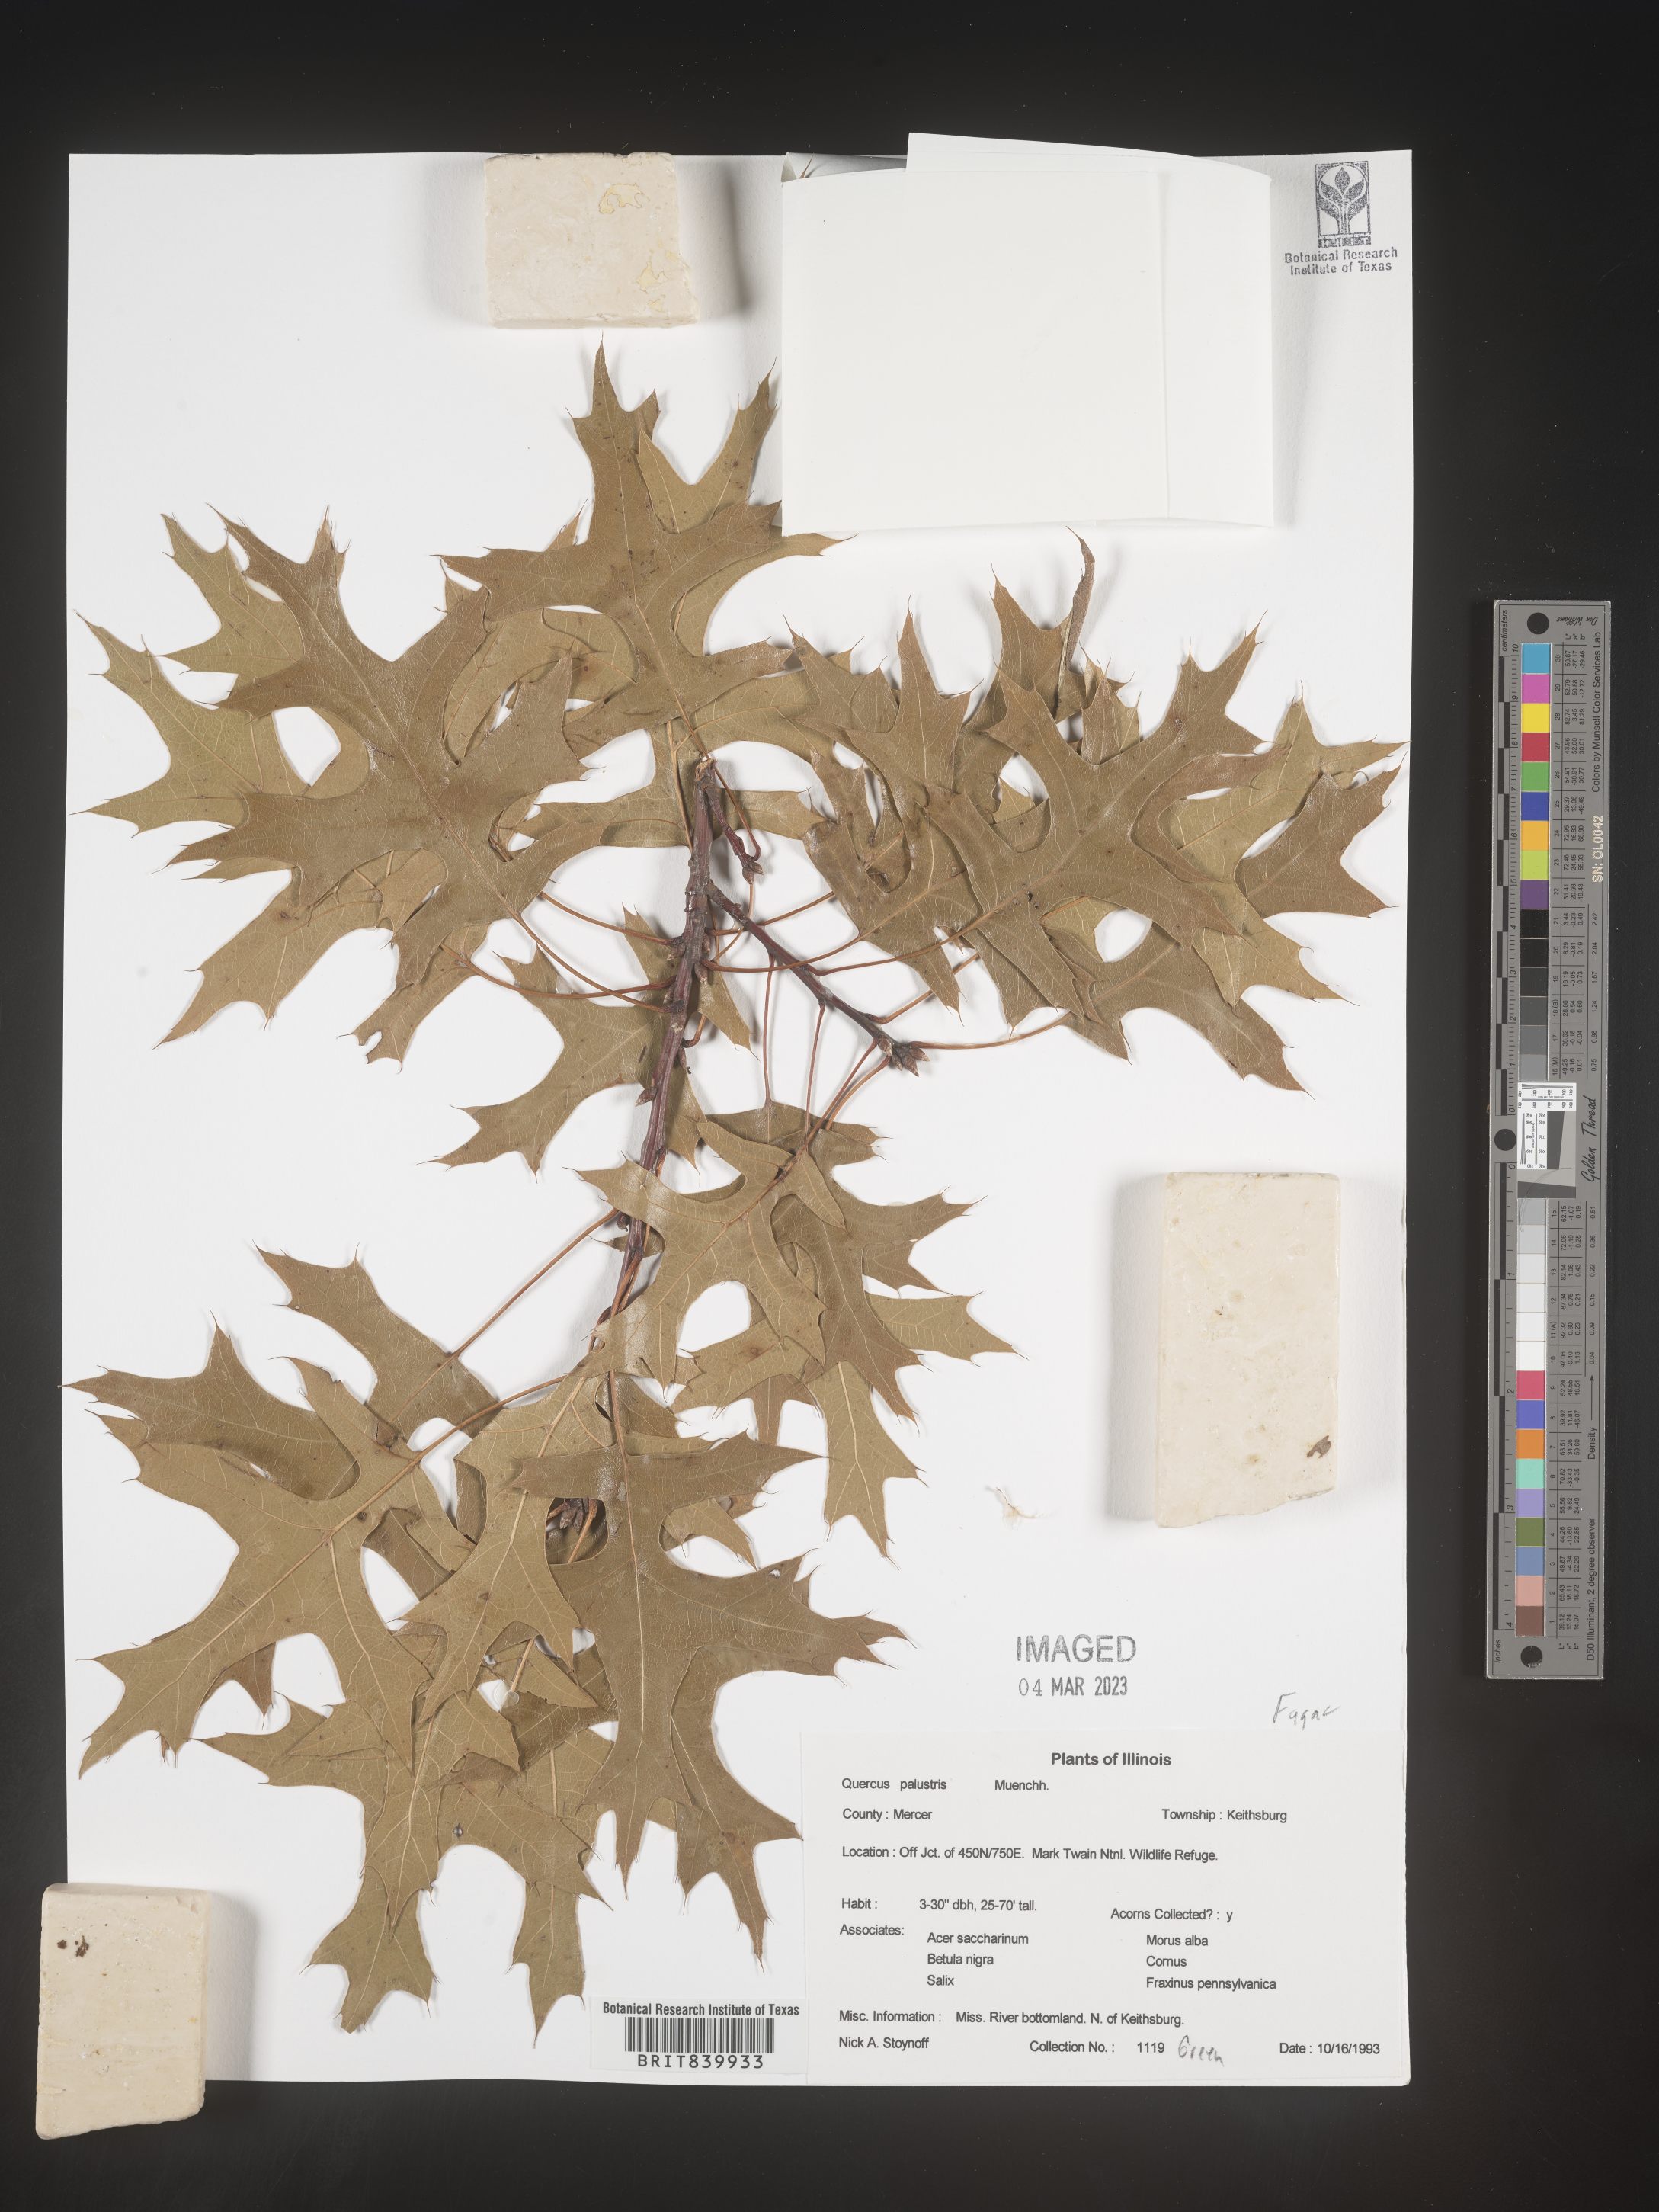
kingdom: Plantae
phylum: Tracheophyta
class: Magnoliopsida
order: Fagales
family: Fagaceae
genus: Quercus
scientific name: Quercus palustris
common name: Pin oak
